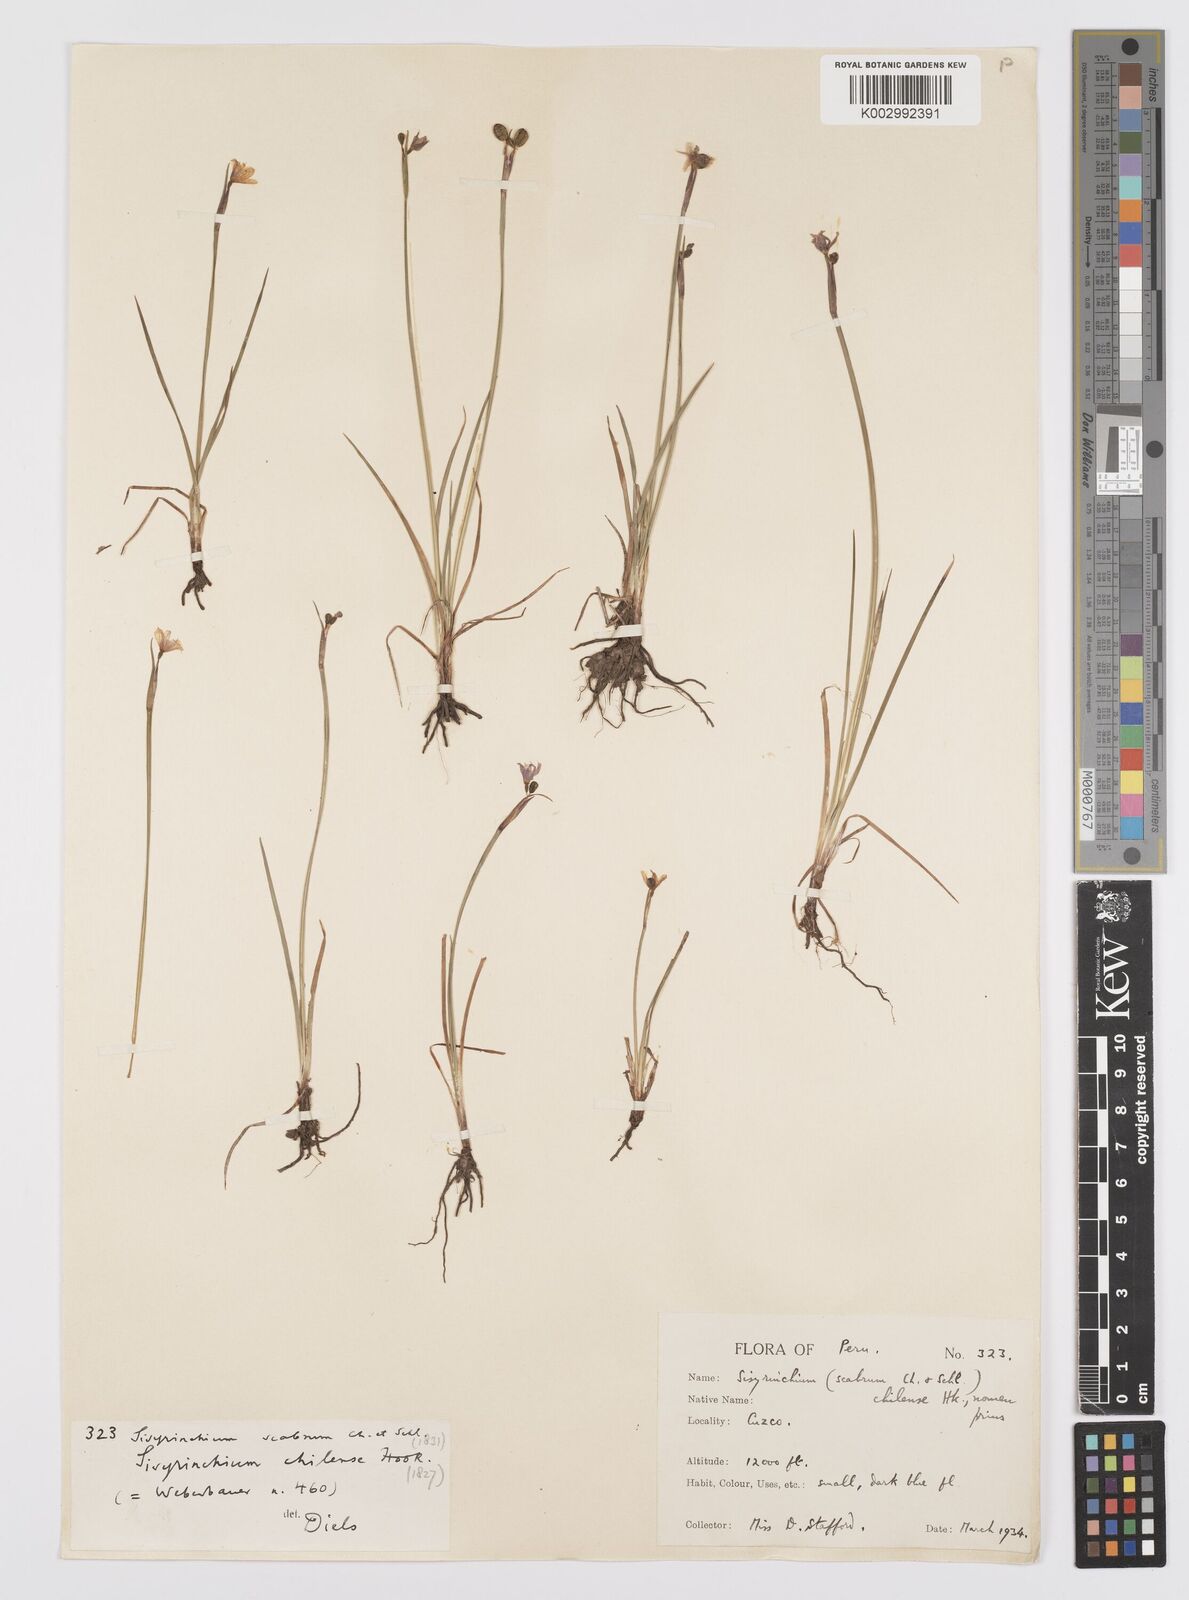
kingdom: Plantae
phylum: Tracheophyta
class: Liliopsida
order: Asparagales
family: Iridaceae
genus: Sisyrinchium
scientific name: Sisyrinchium chilense
